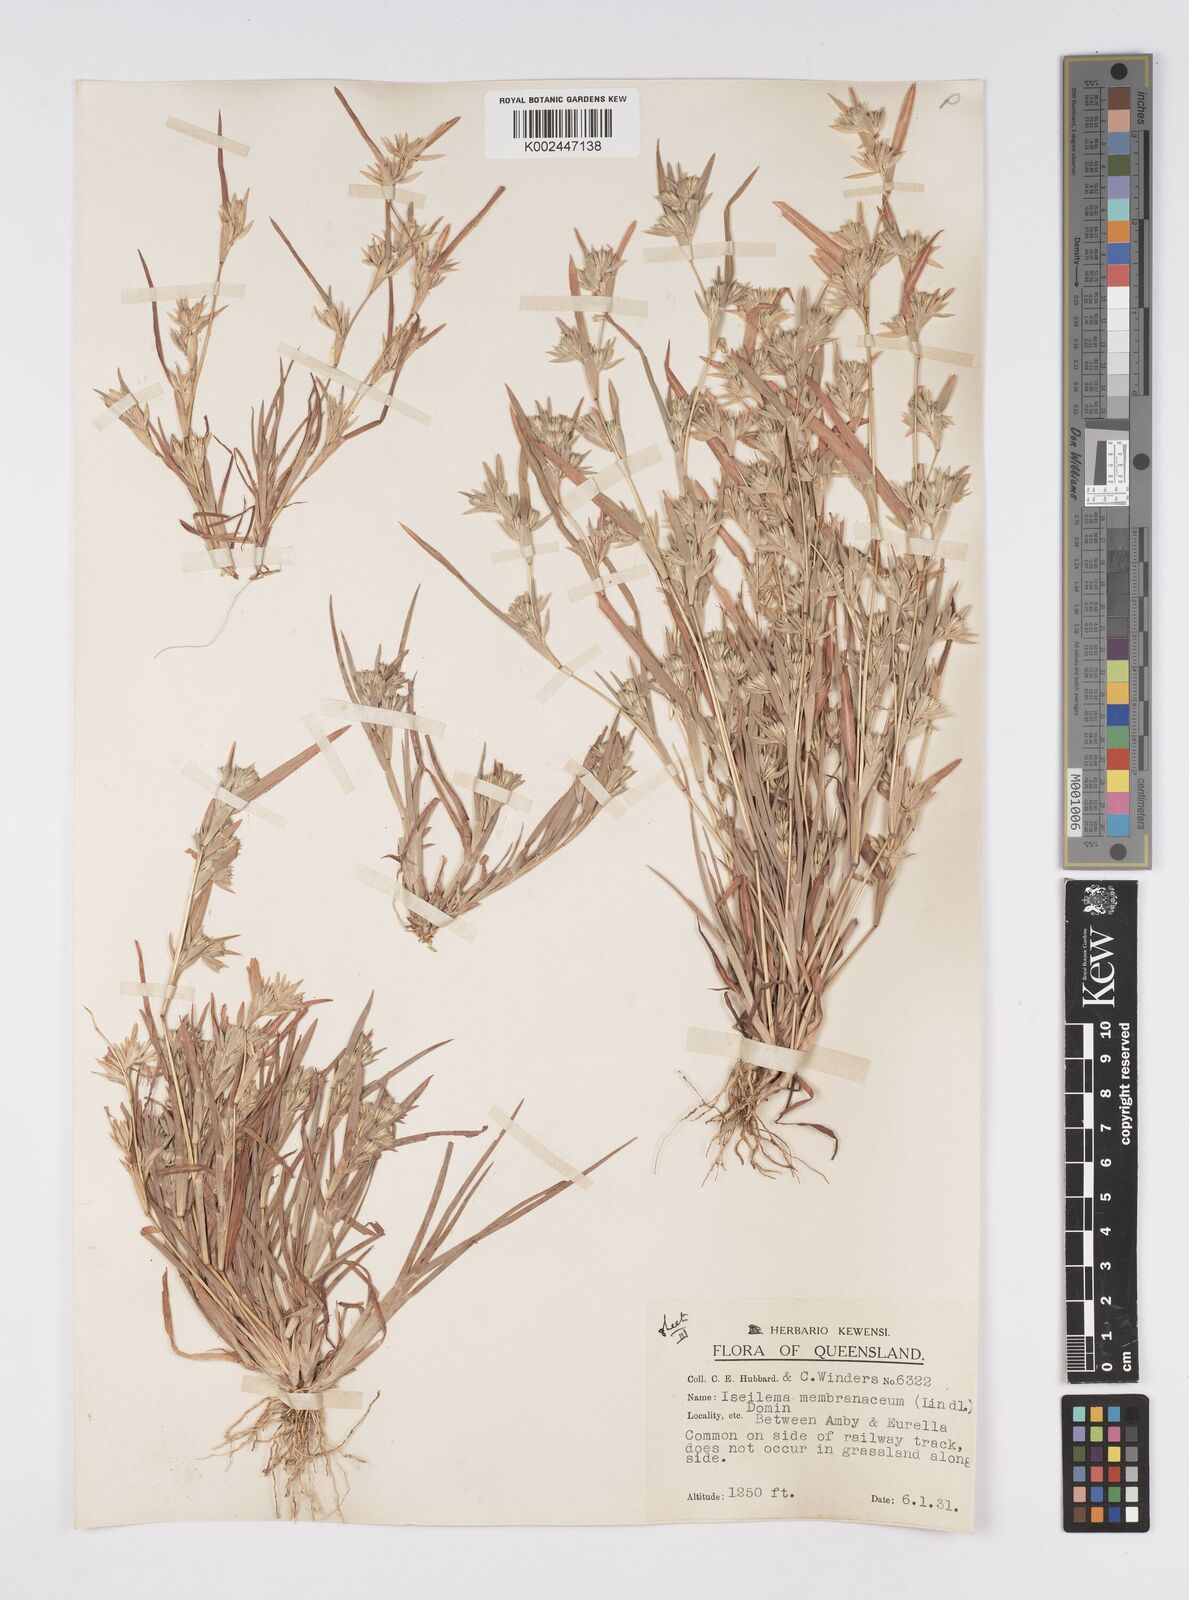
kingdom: Plantae
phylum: Tracheophyta
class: Liliopsida
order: Poales
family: Poaceae
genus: Iseilema
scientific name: Iseilema membranaceum
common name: Small flinders grass
